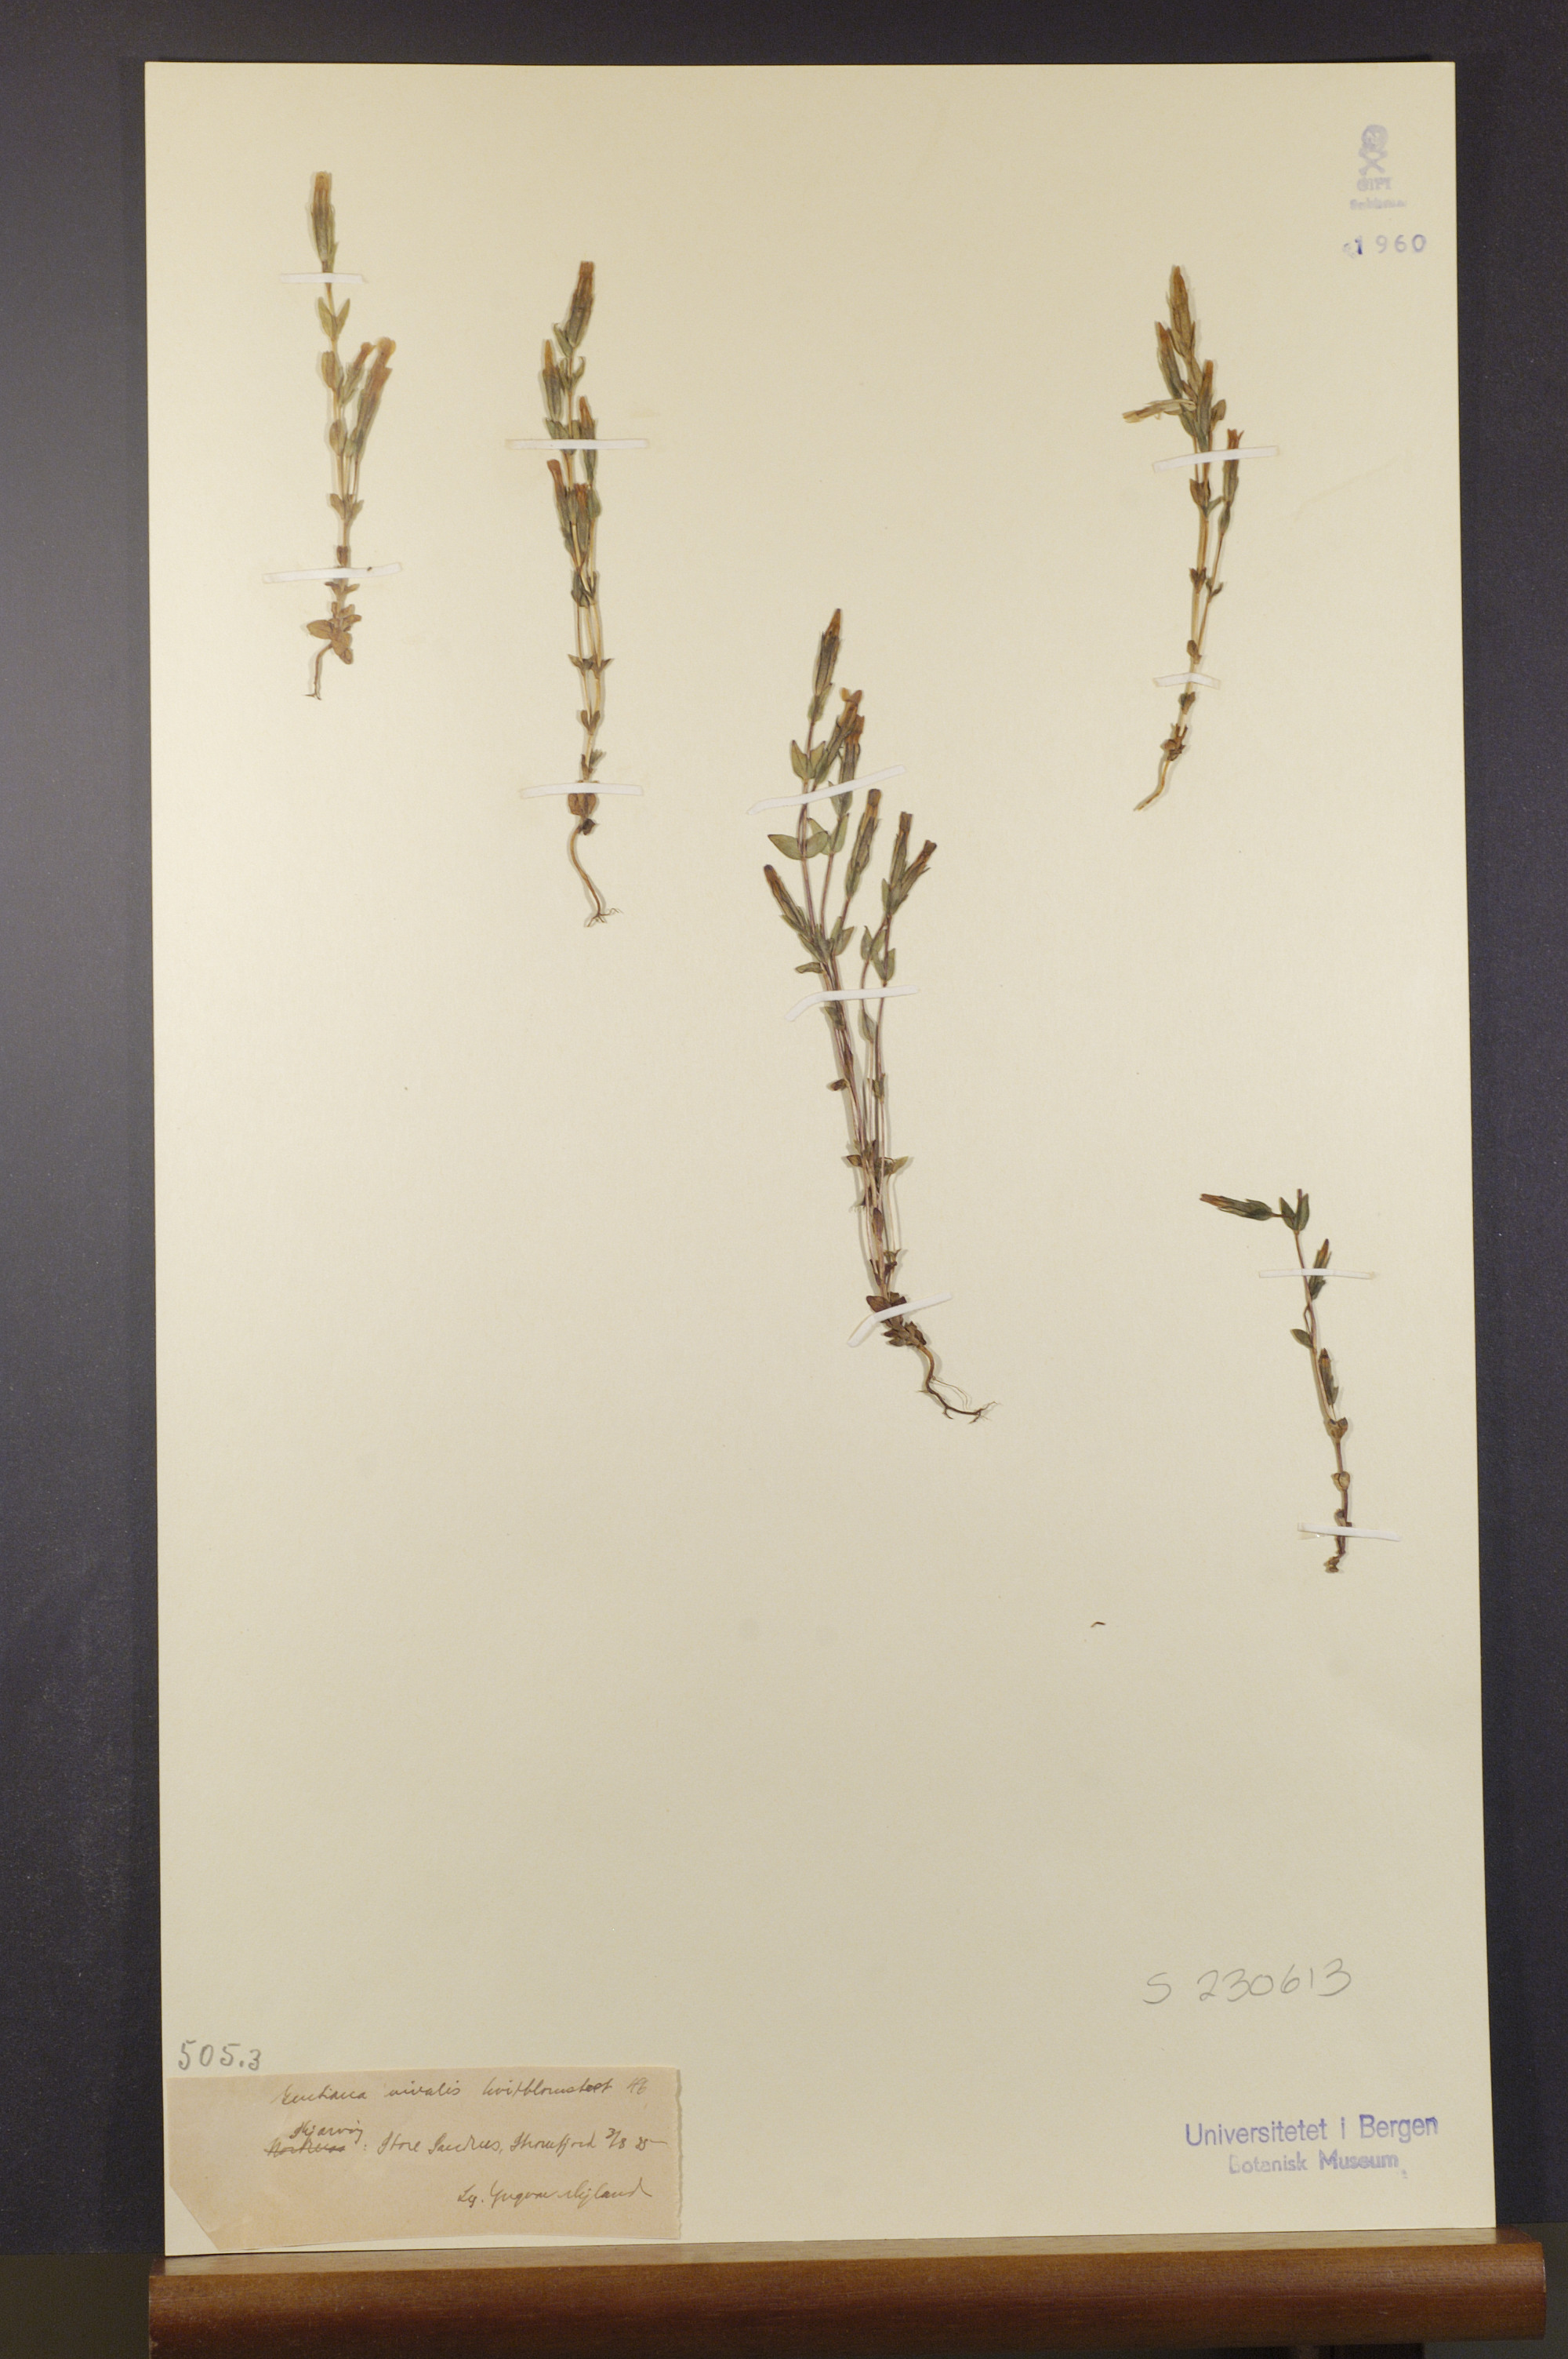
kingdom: Plantae
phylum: Tracheophyta
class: Magnoliopsida
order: Gentianales
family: Gentianaceae
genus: Gentiana
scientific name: Gentiana nivalis
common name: Alpine gentian
